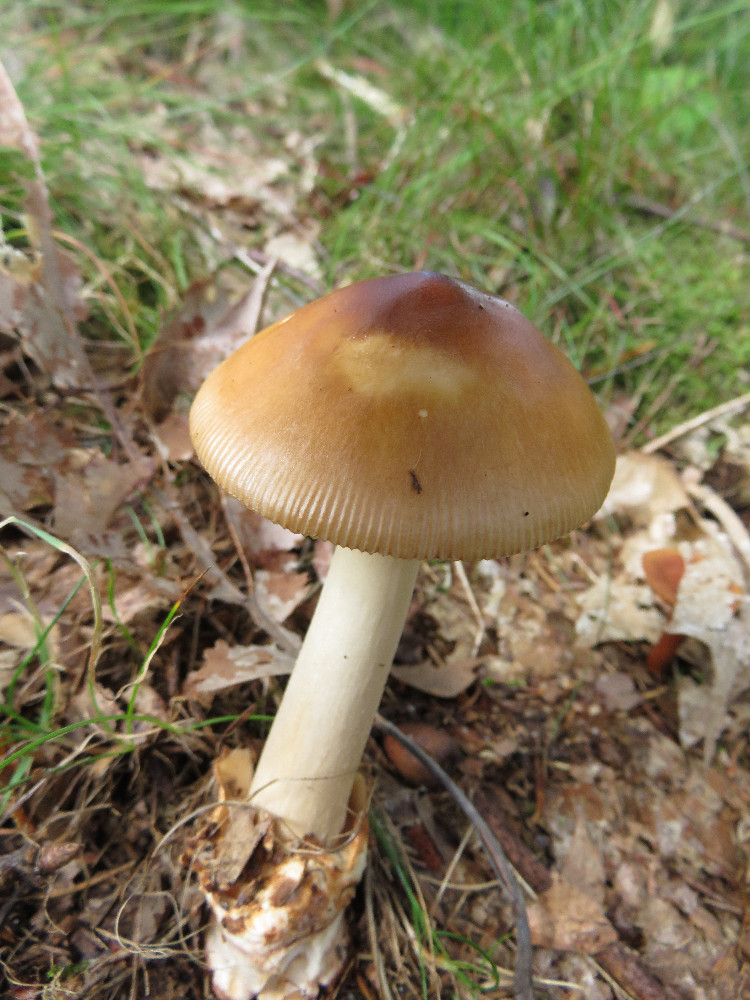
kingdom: Fungi
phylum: Basidiomycota
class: Agaricomycetes
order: Agaricales
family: Amanitaceae
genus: Amanita
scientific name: Amanita fulva
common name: brun kam-fluesvamp
